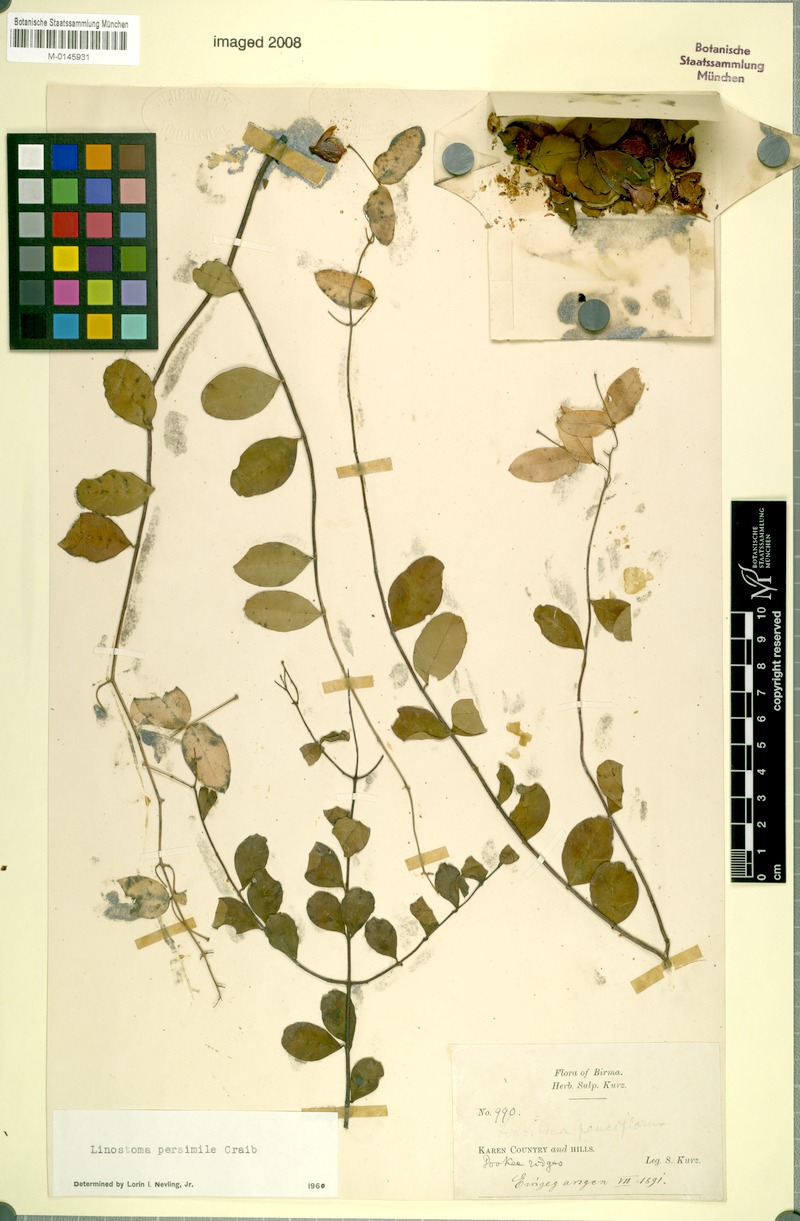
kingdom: Plantae
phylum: Tracheophyta
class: Magnoliopsida
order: Malvales
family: Thymelaeaceae
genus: Linostoma
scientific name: Linostoma persimile
